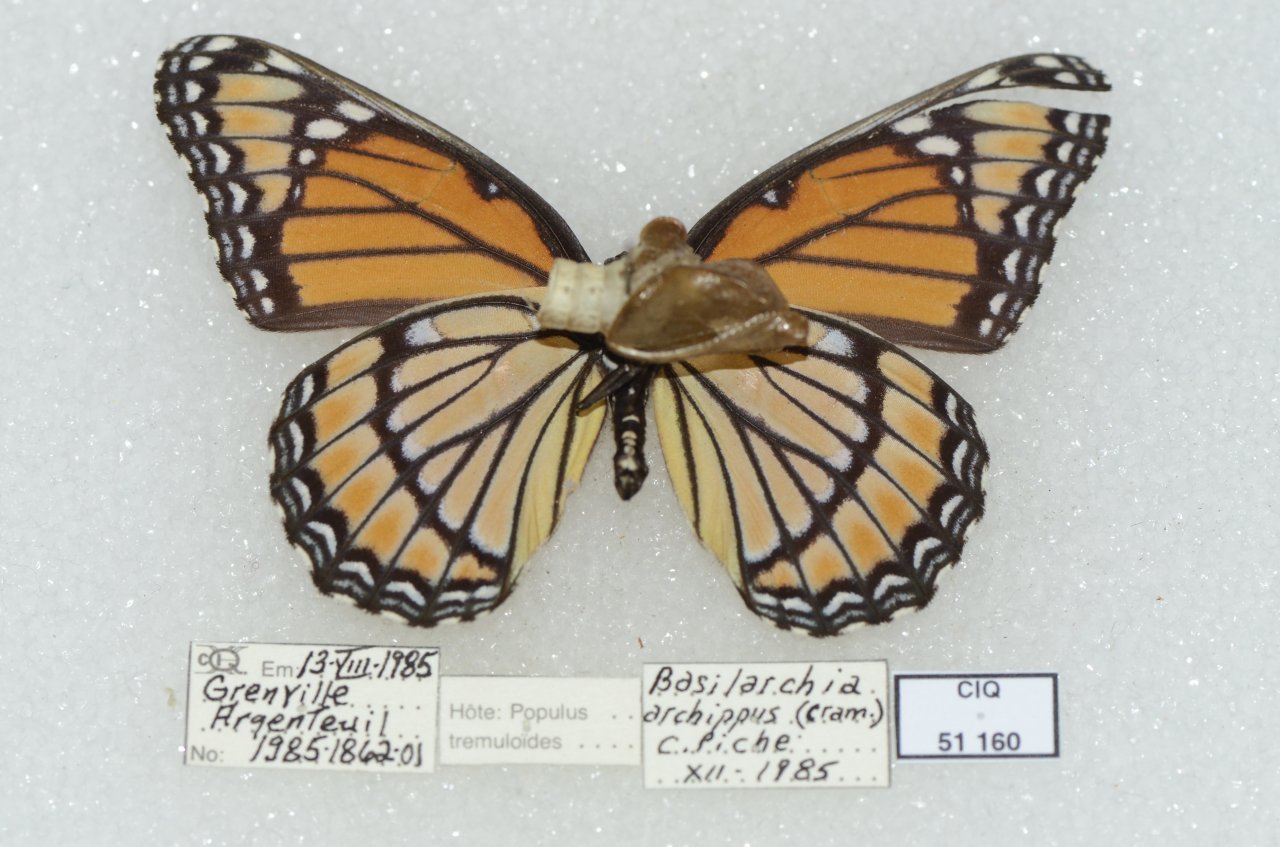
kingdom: Animalia
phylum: Arthropoda
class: Insecta
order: Lepidoptera
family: Nymphalidae
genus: Limenitis
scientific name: Limenitis archippus
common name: Viceroy
